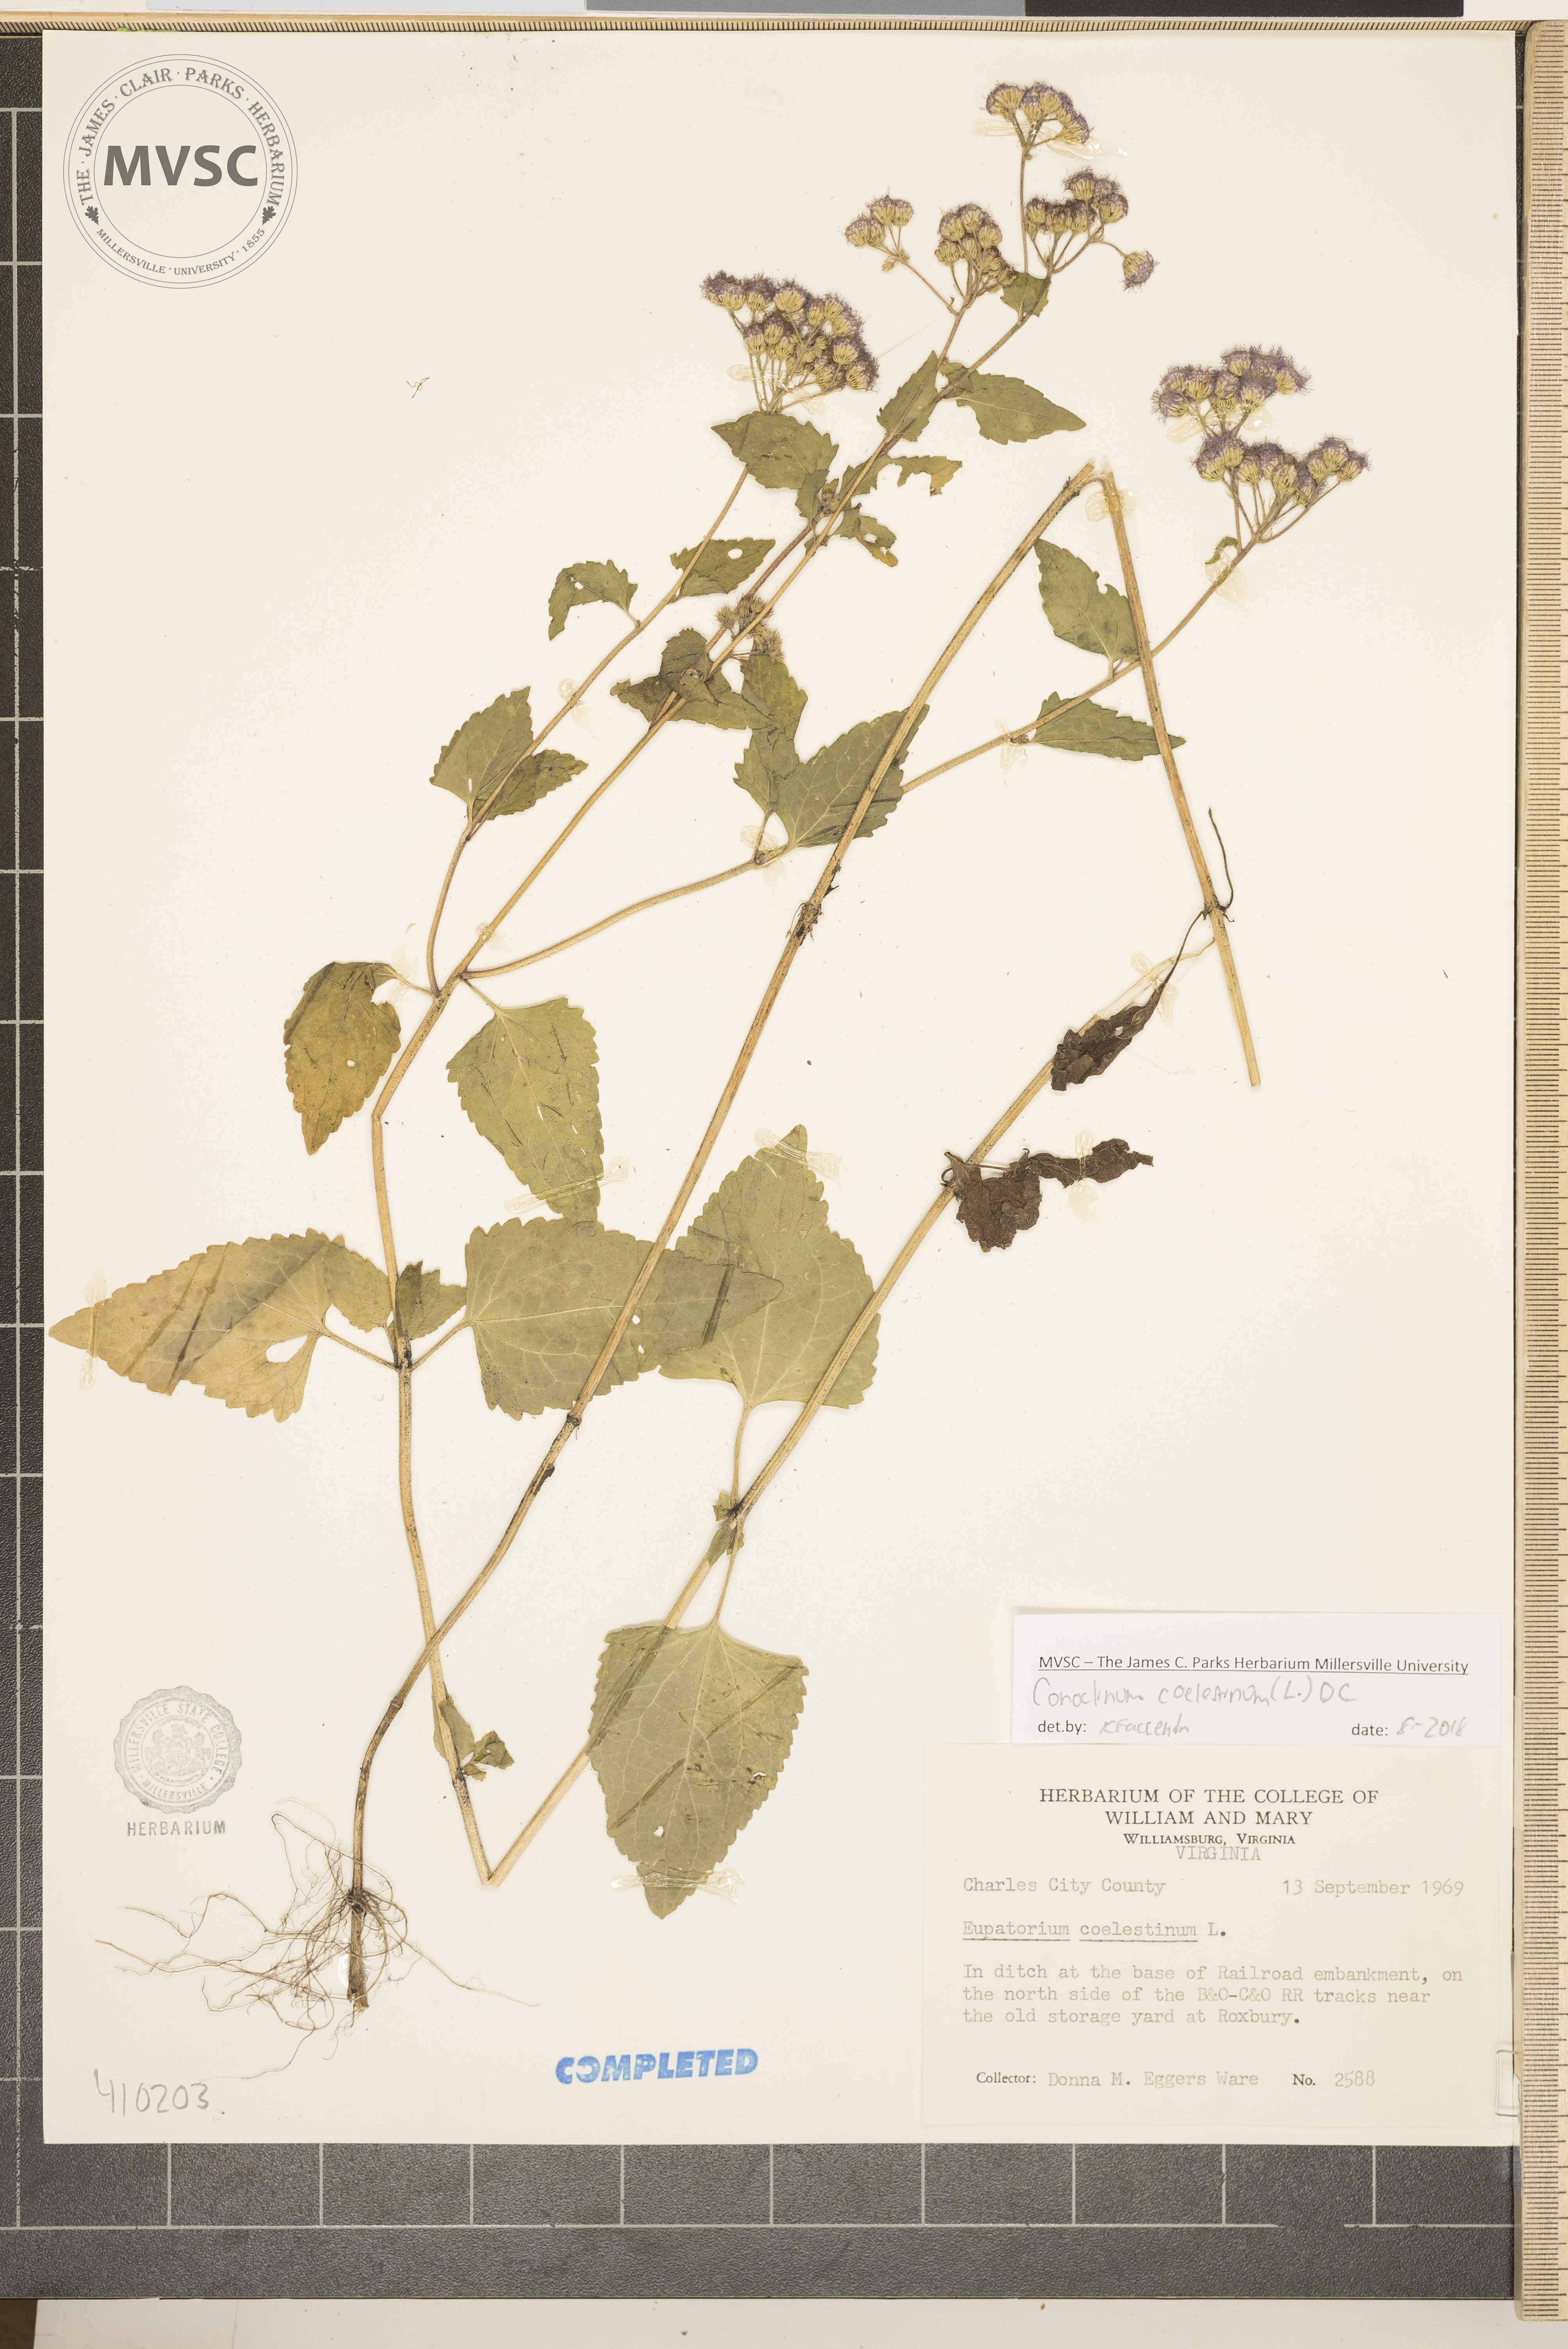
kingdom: Plantae
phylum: Tracheophyta
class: Magnoliopsida
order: Asterales
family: Asteraceae
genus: Conoclinium
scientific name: Conoclinium coelestinum
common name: Blue mistflower
